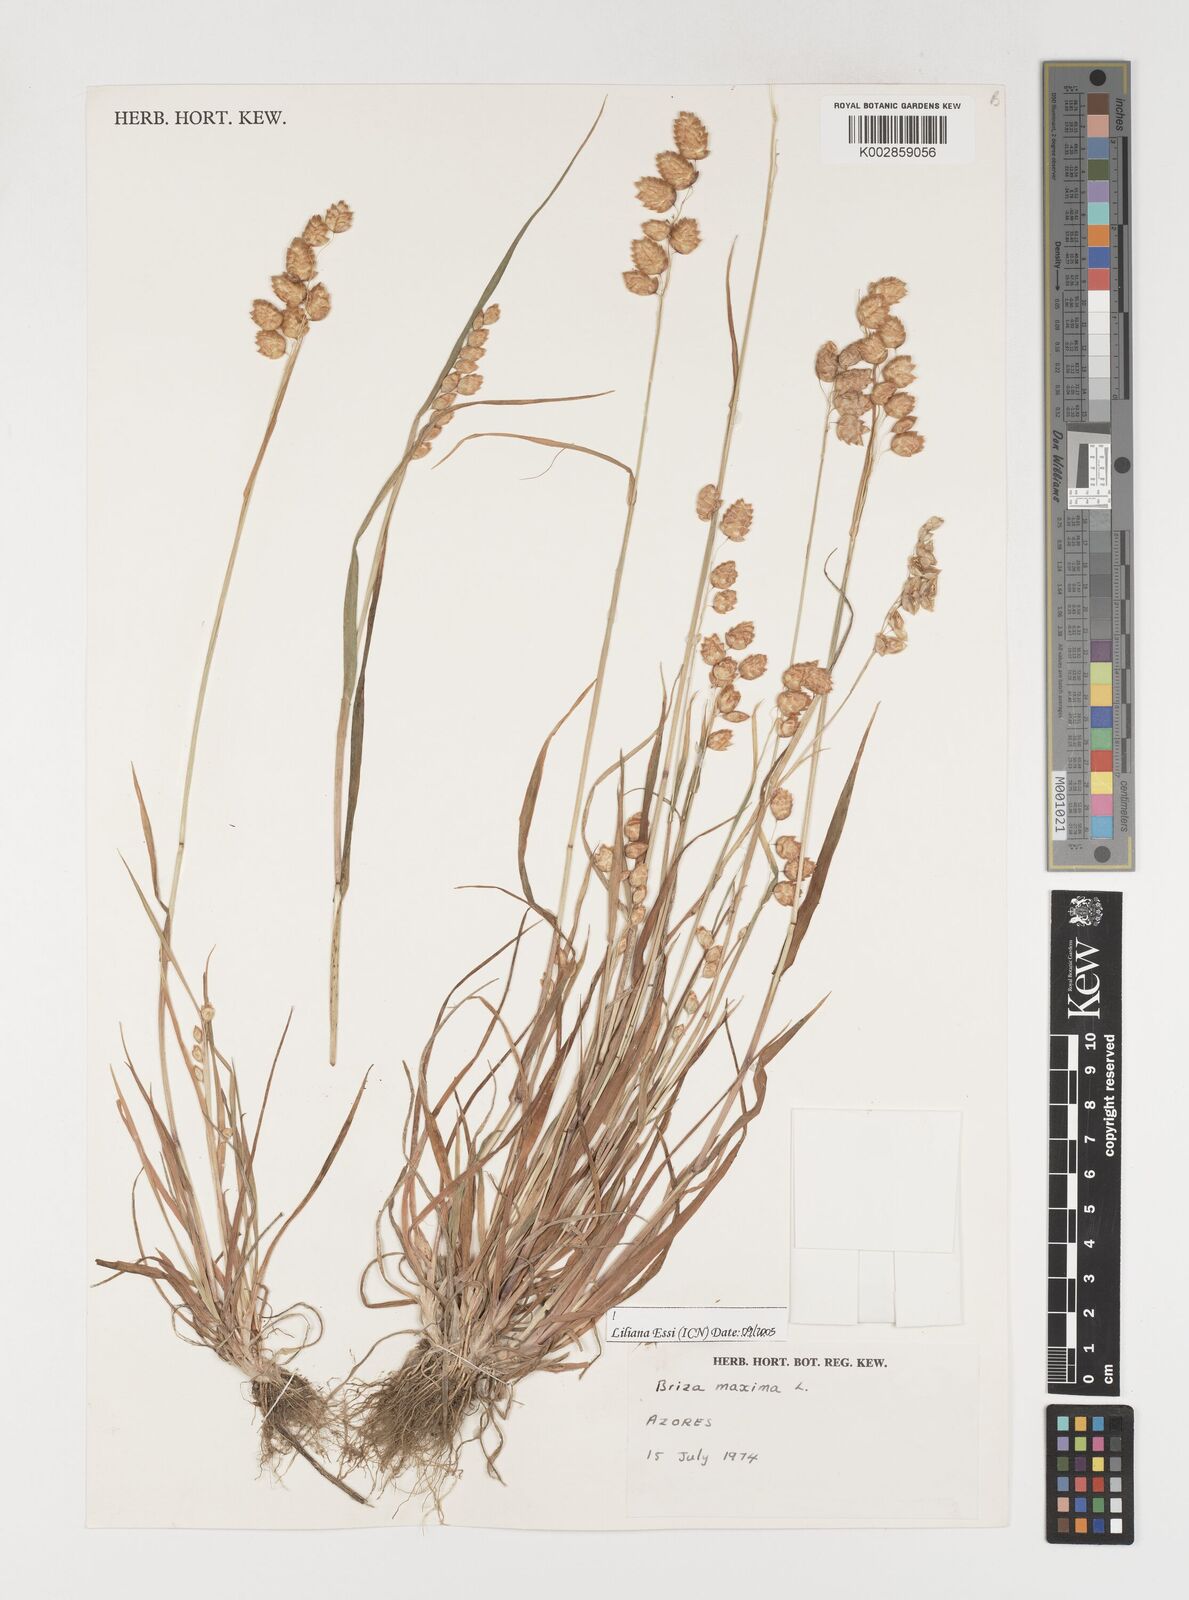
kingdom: Plantae
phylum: Tracheophyta
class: Liliopsida
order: Poales
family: Poaceae
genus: Briza
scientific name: Briza maxima
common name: Big quakinggrass
